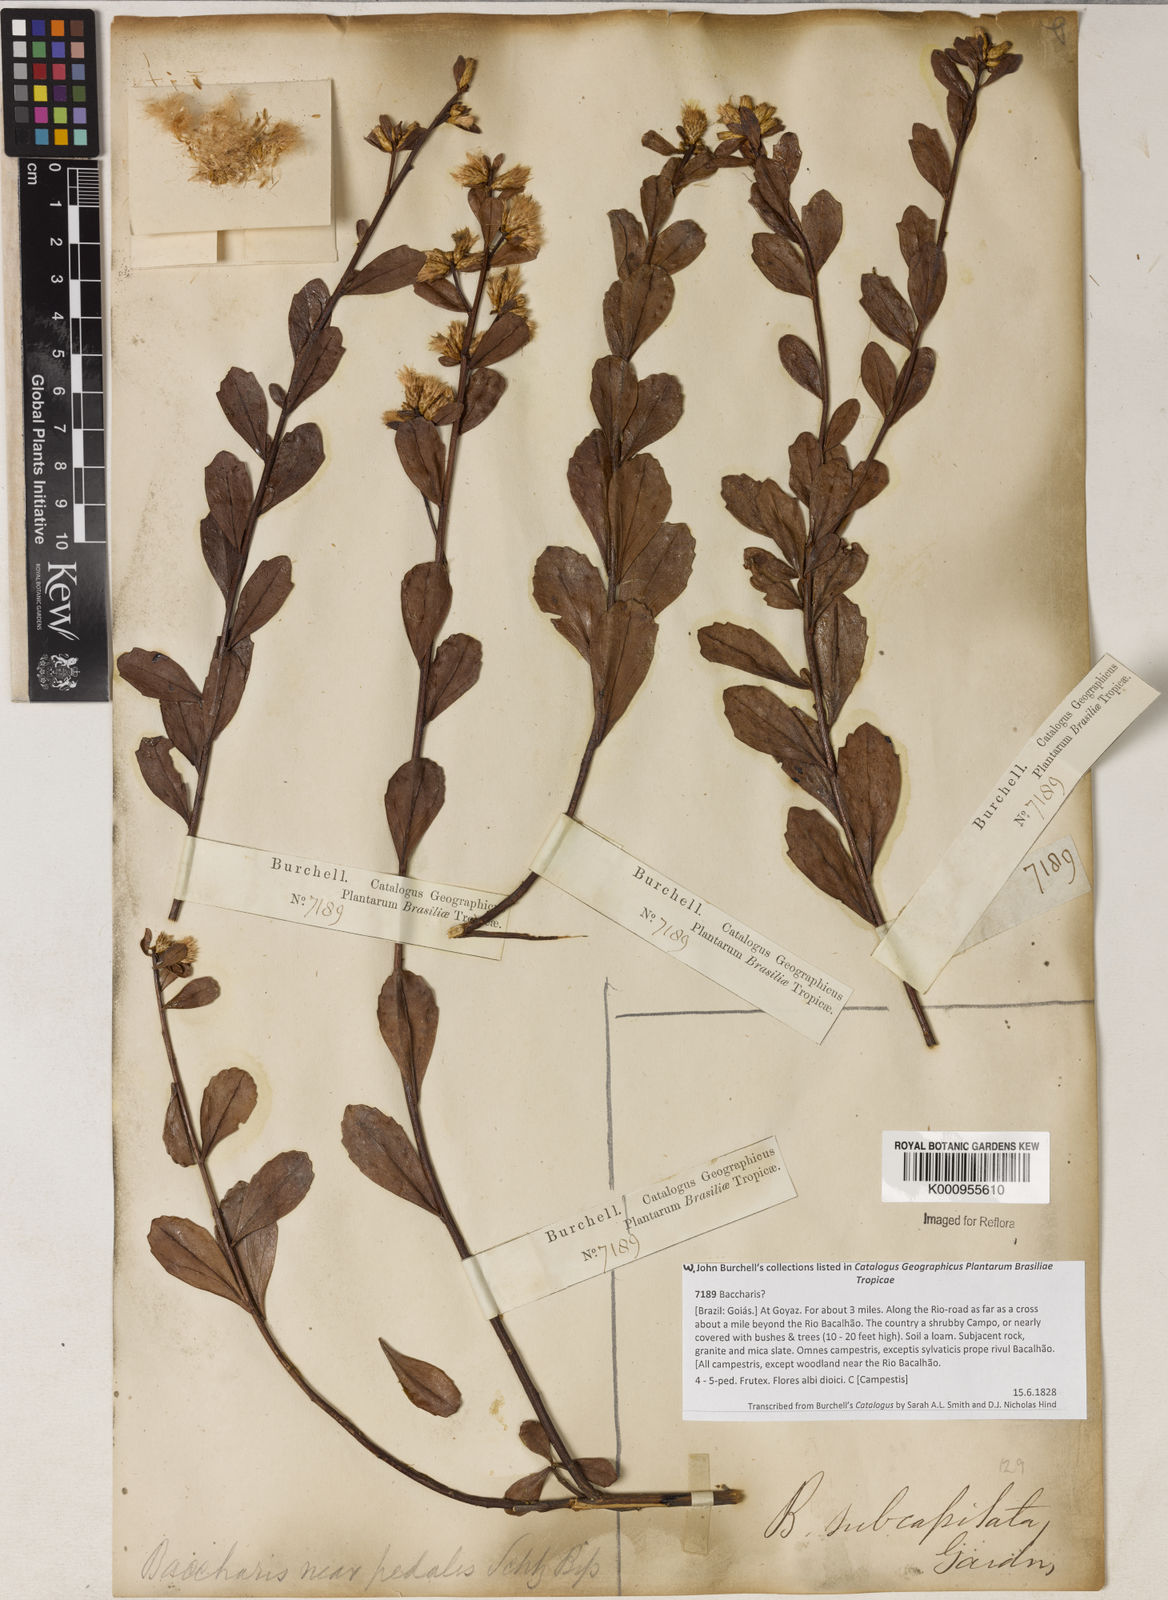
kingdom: Plantae
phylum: Tracheophyta
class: Magnoliopsida
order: Asterales
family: Asteraceae
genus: Baccharis
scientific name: Baccharis subdentata
